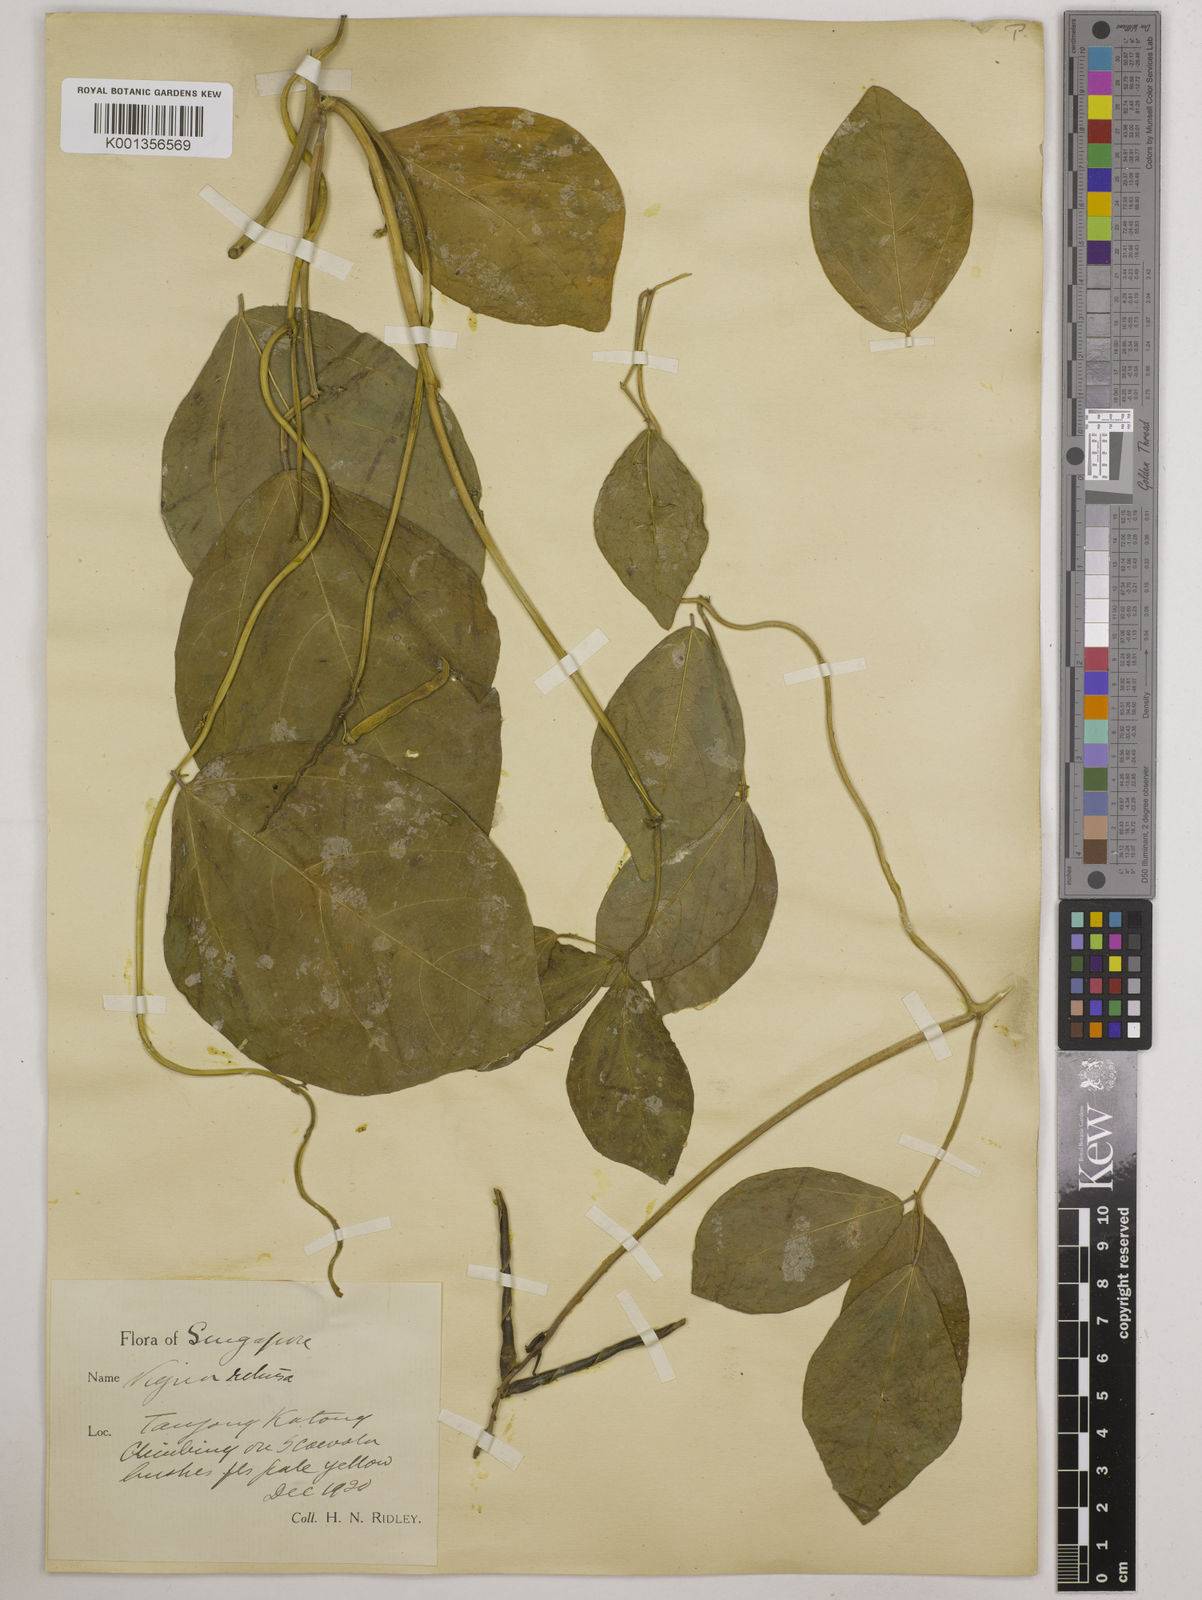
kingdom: Plantae
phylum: Tracheophyta
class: Magnoliopsida
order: Fabales
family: Fabaceae
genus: Vigna
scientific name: Vigna marina
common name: Dune-bean
